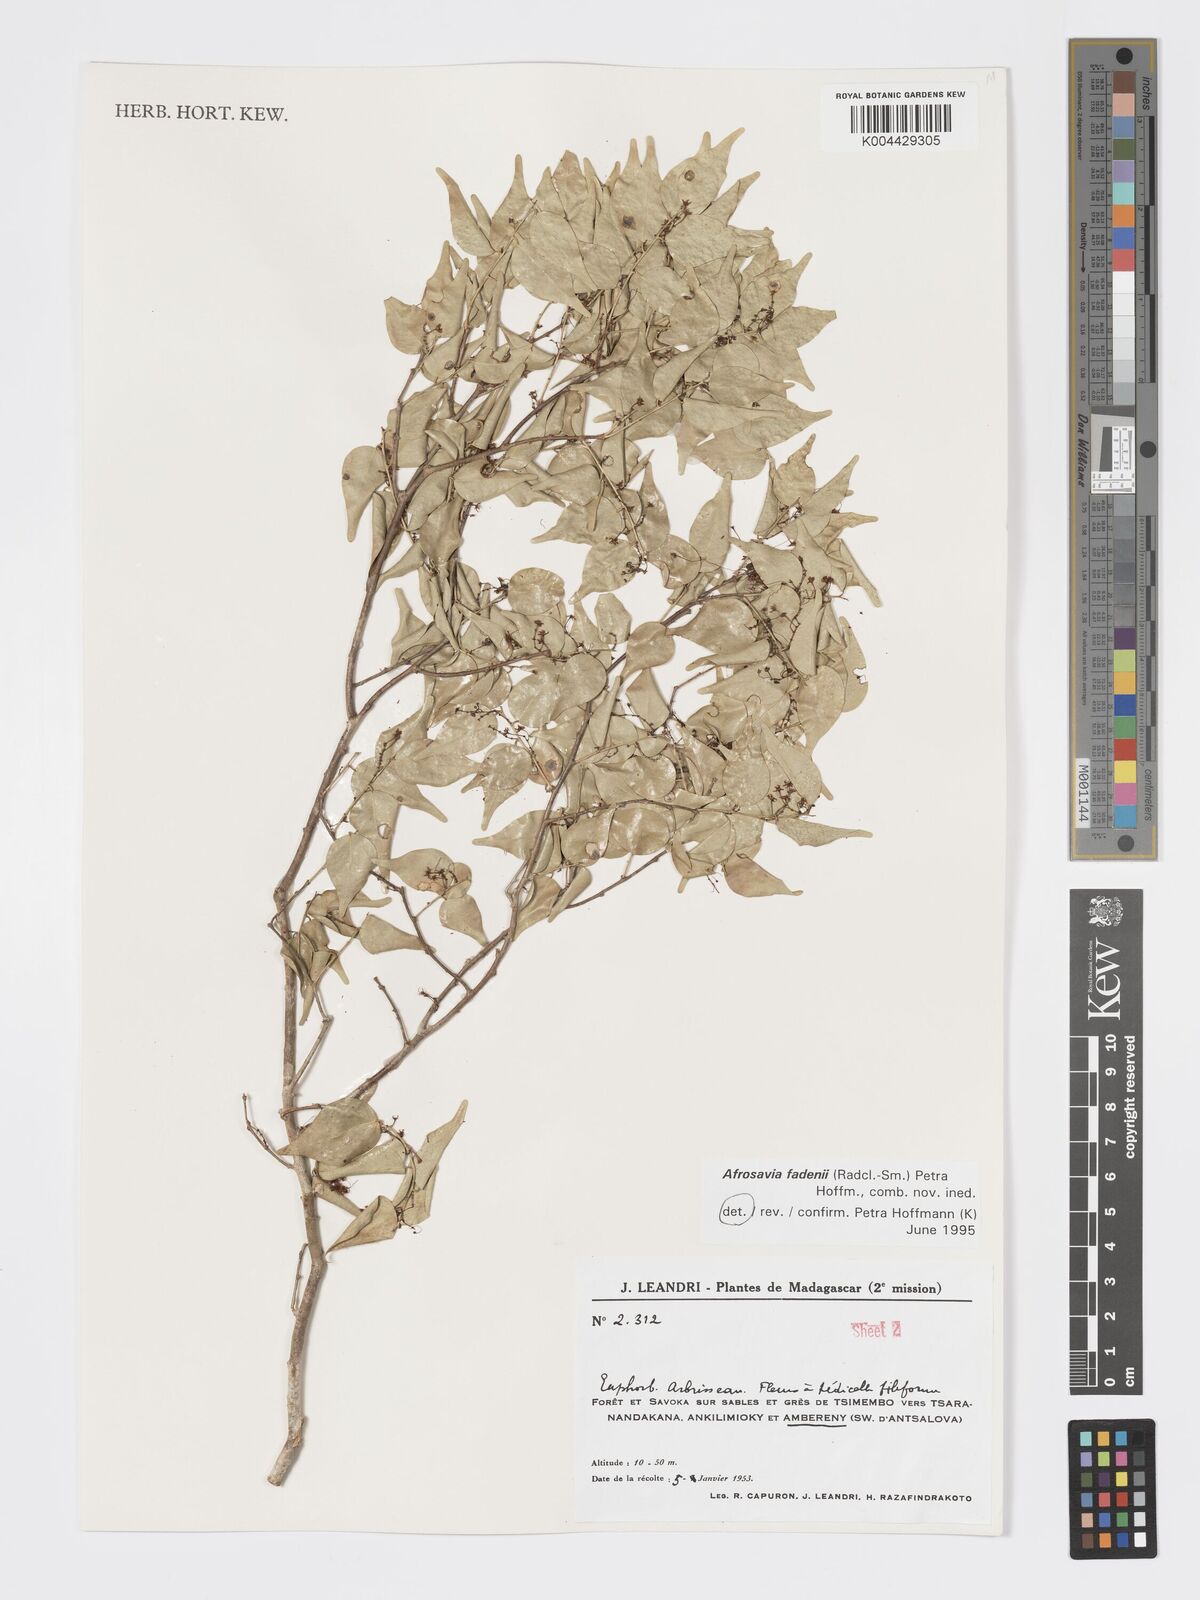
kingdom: Plantae
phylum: Tracheophyta
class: Magnoliopsida
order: Malpighiales
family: Phyllanthaceae
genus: Wielandia
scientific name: Wielandia fadenii
